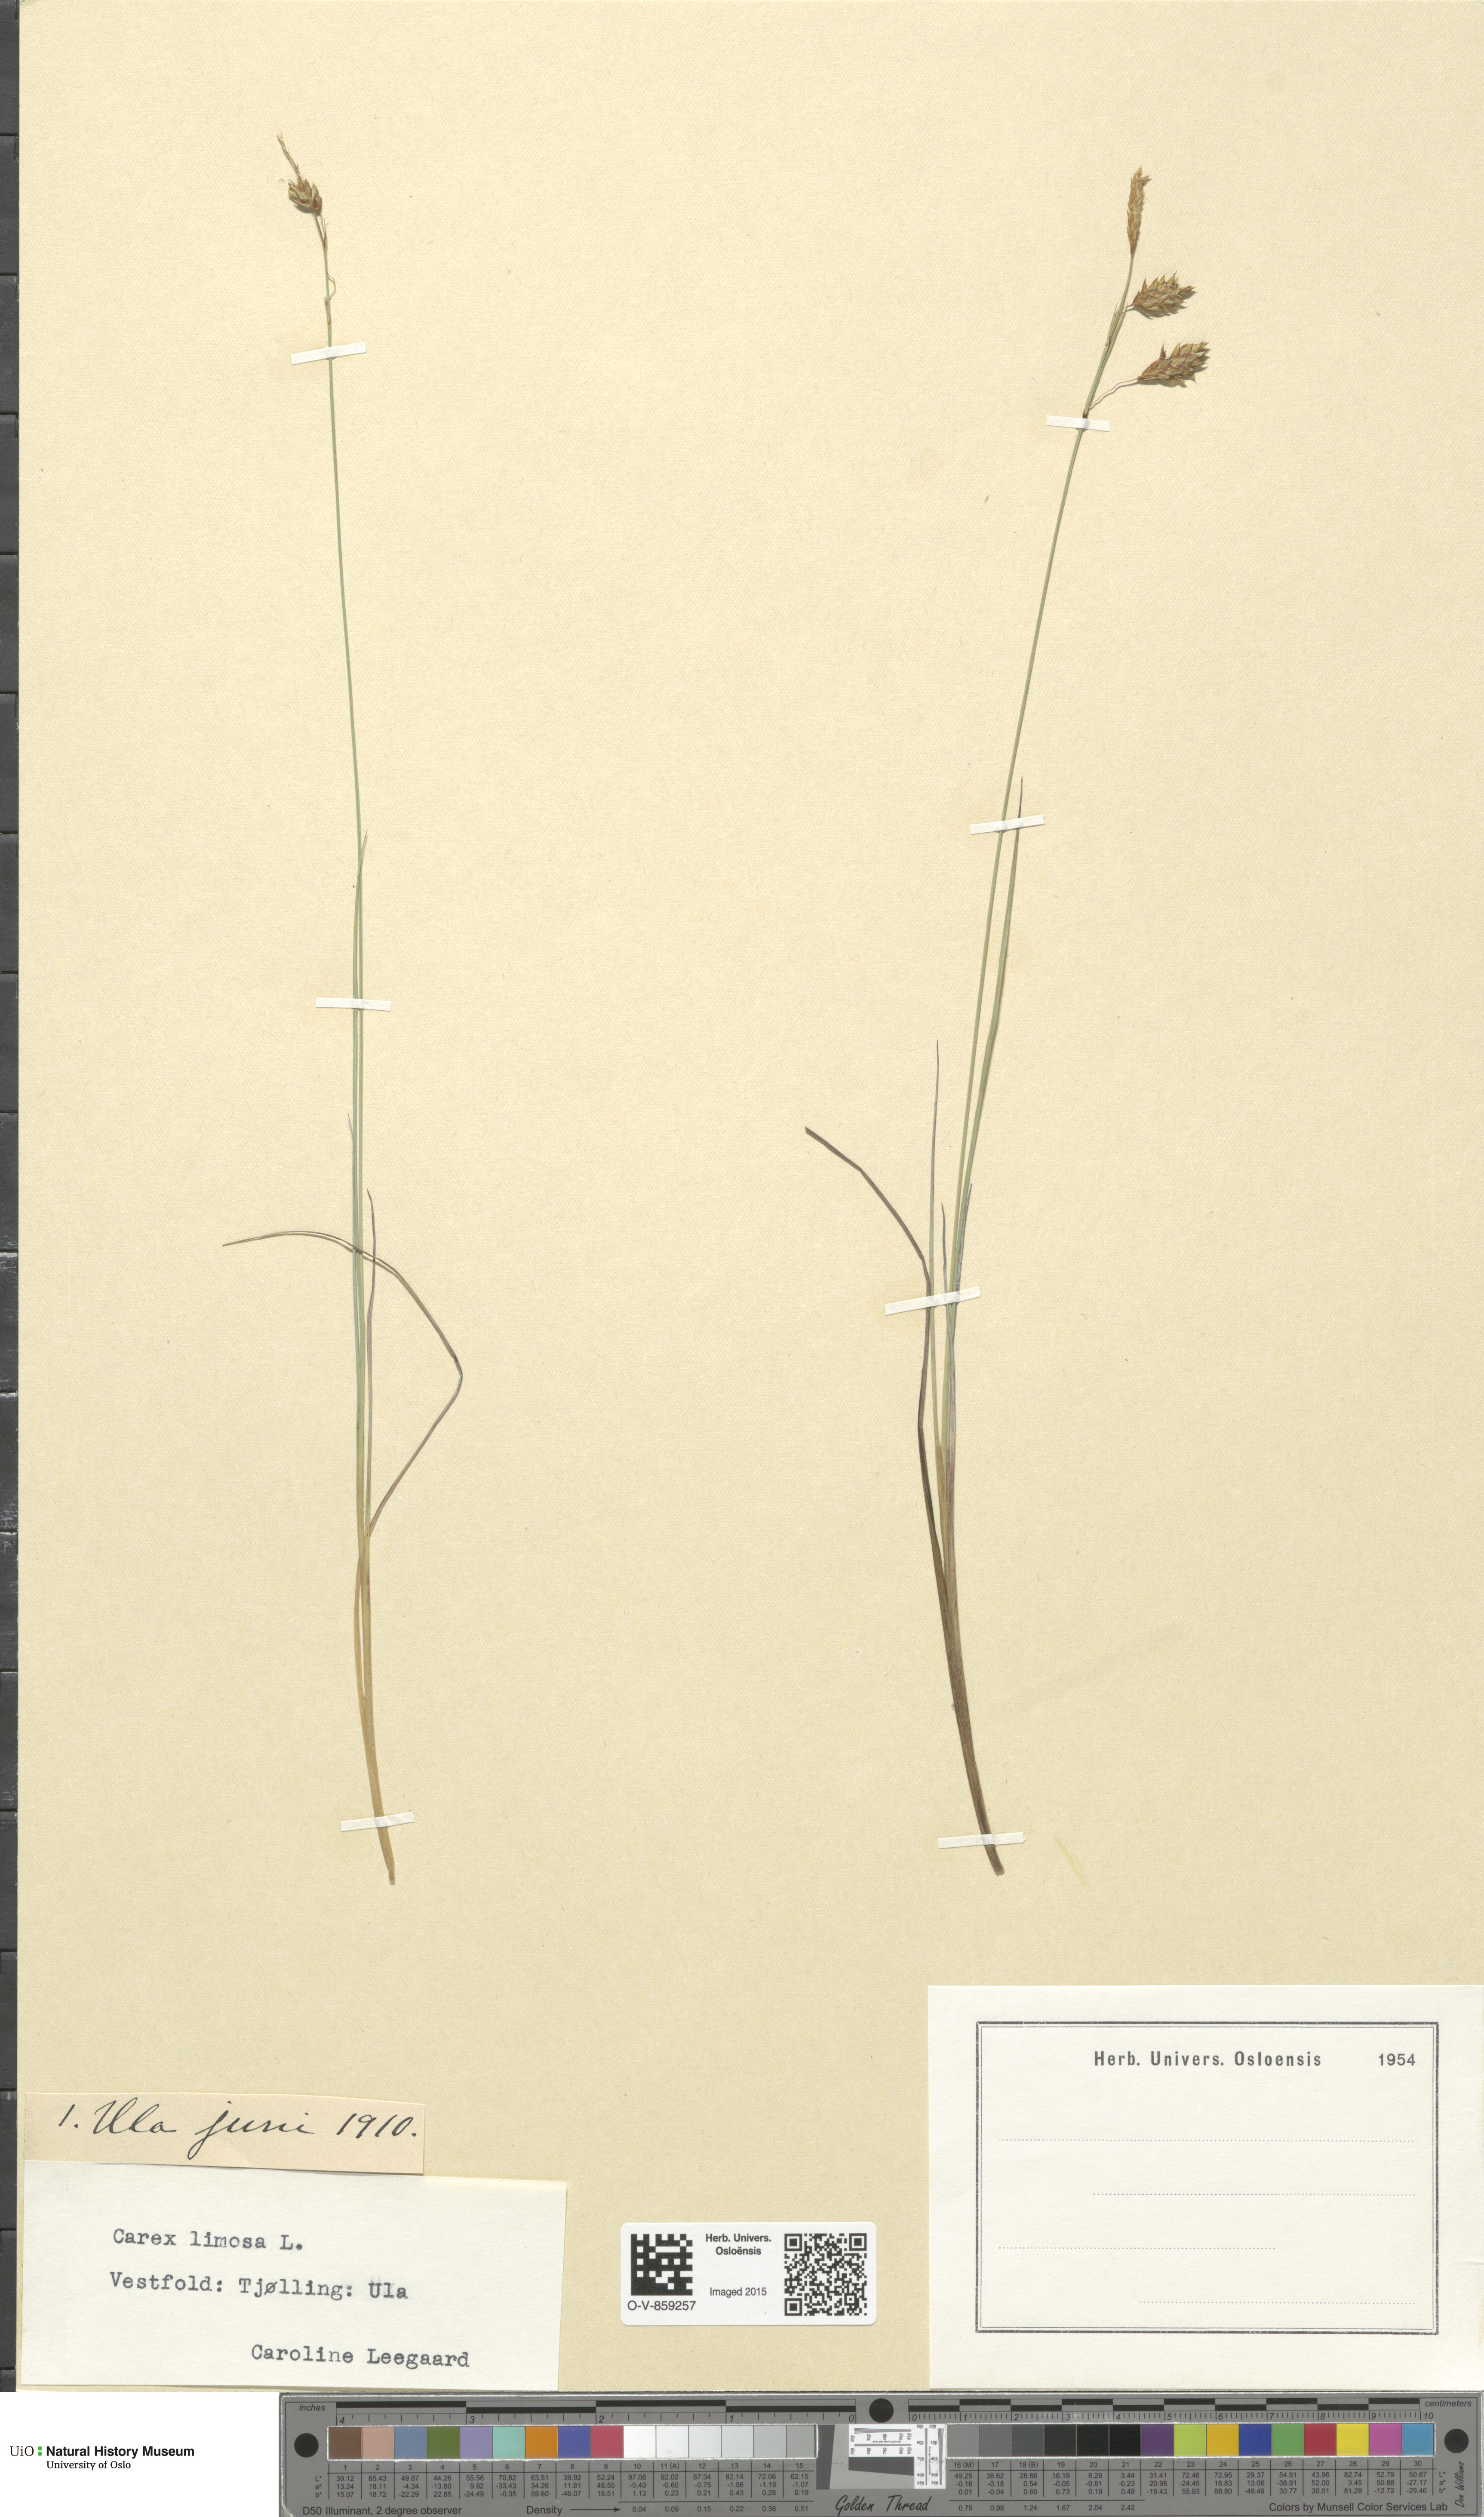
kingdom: Plantae
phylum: Tracheophyta
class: Liliopsida
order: Poales
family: Cyperaceae
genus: Carex
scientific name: Carex limosa
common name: Bog sedge
